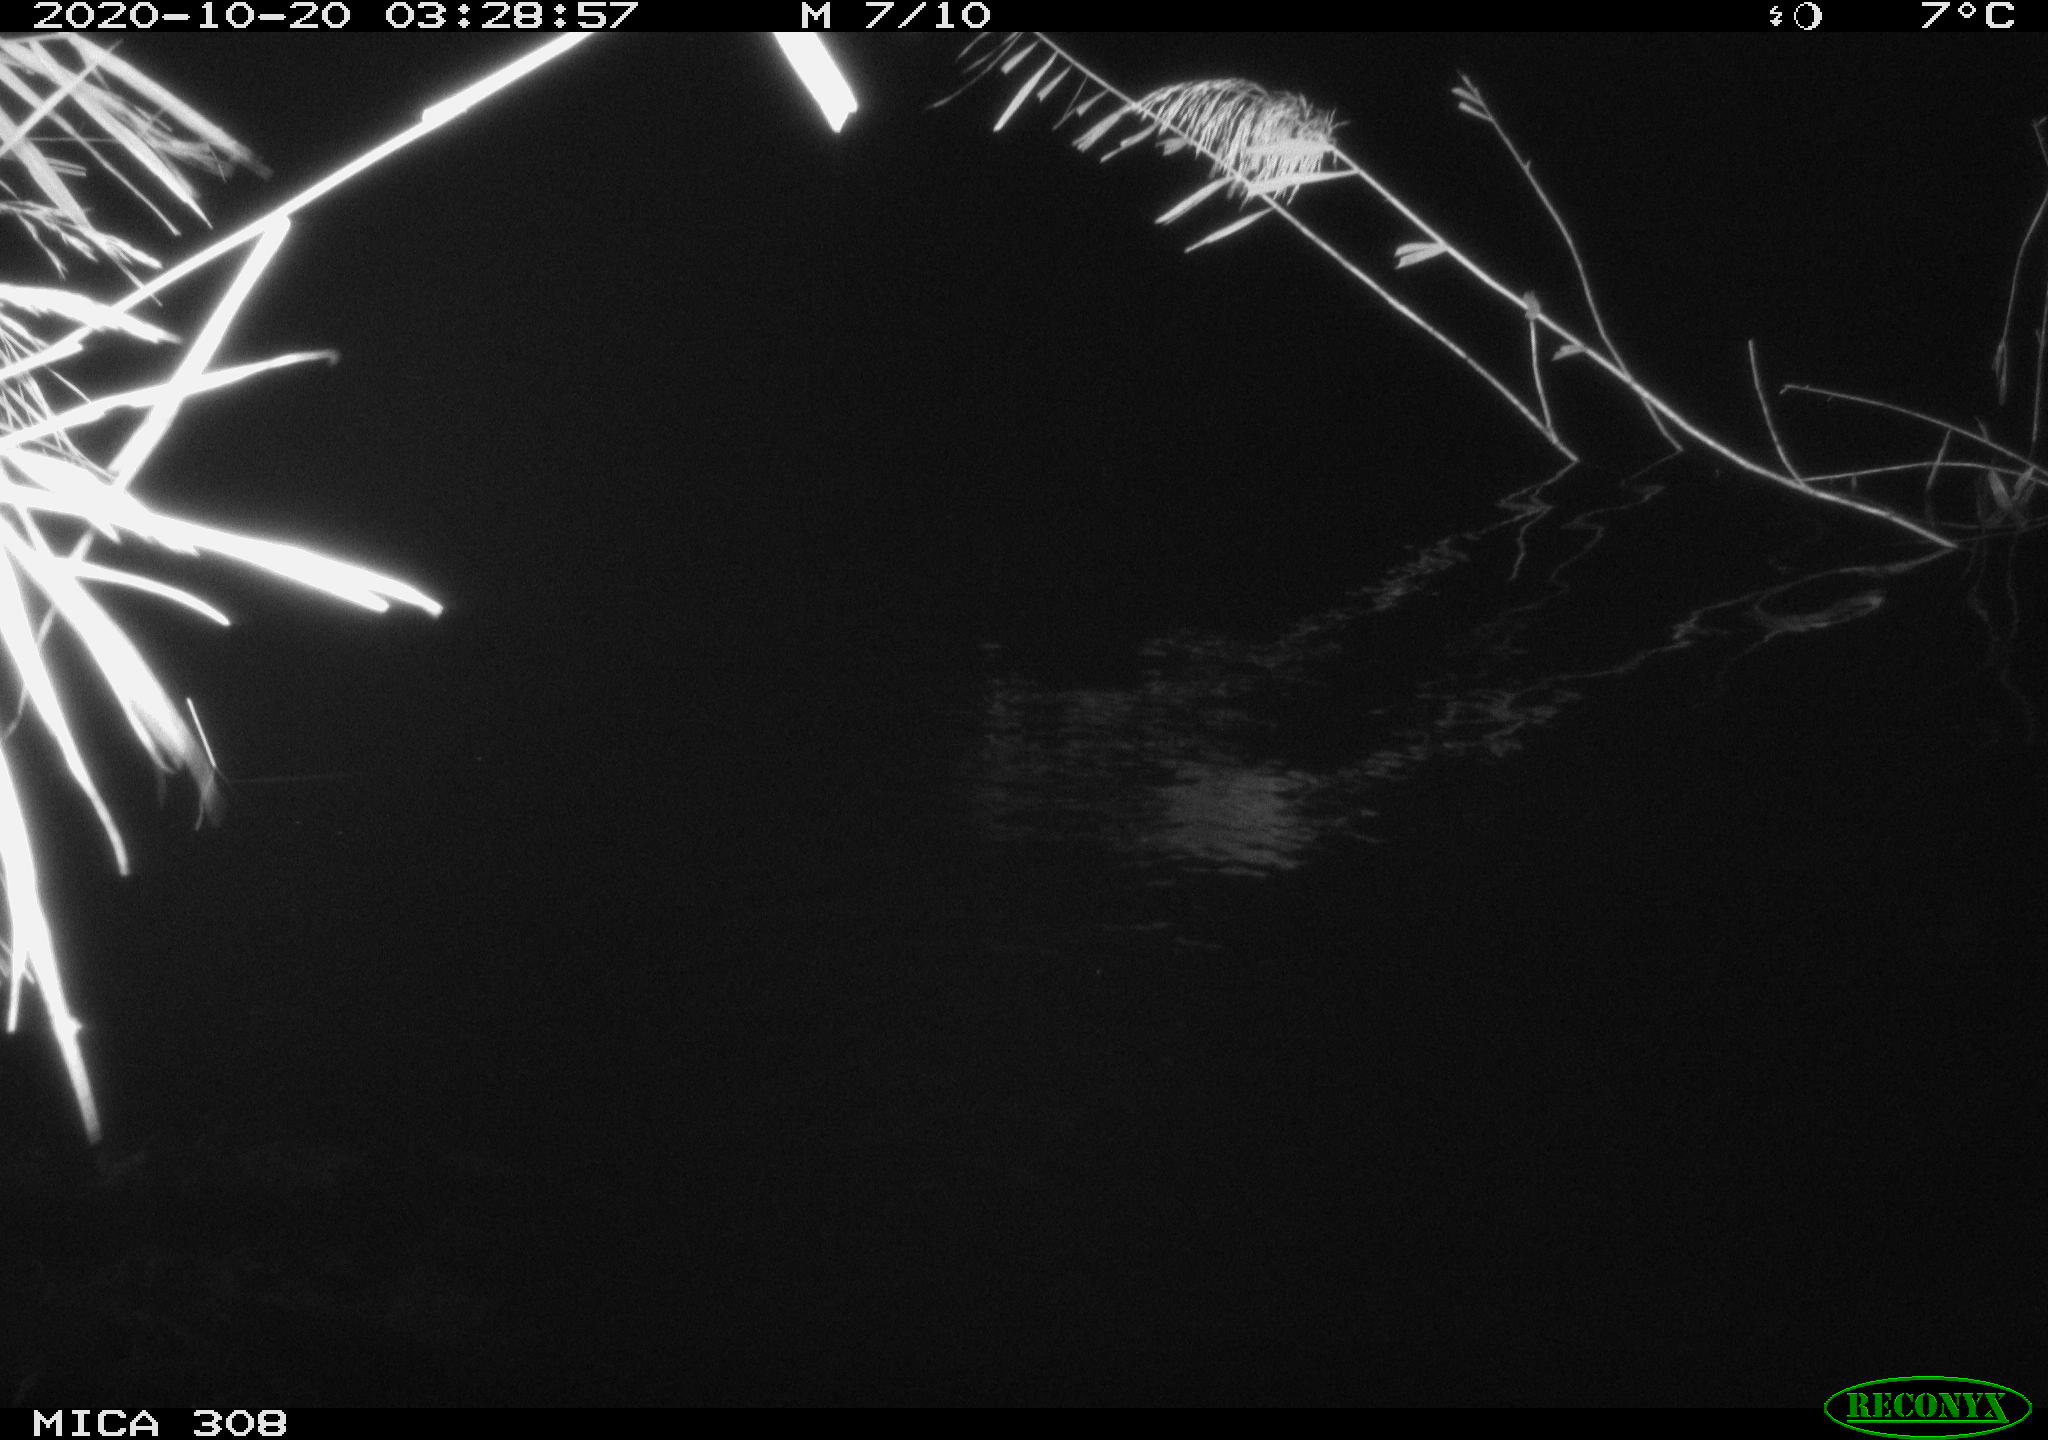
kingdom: Animalia
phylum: Chordata
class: Aves
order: Anseriformes
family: Anatidae
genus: Anas
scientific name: Anas platyrhynchos
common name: Mallard
